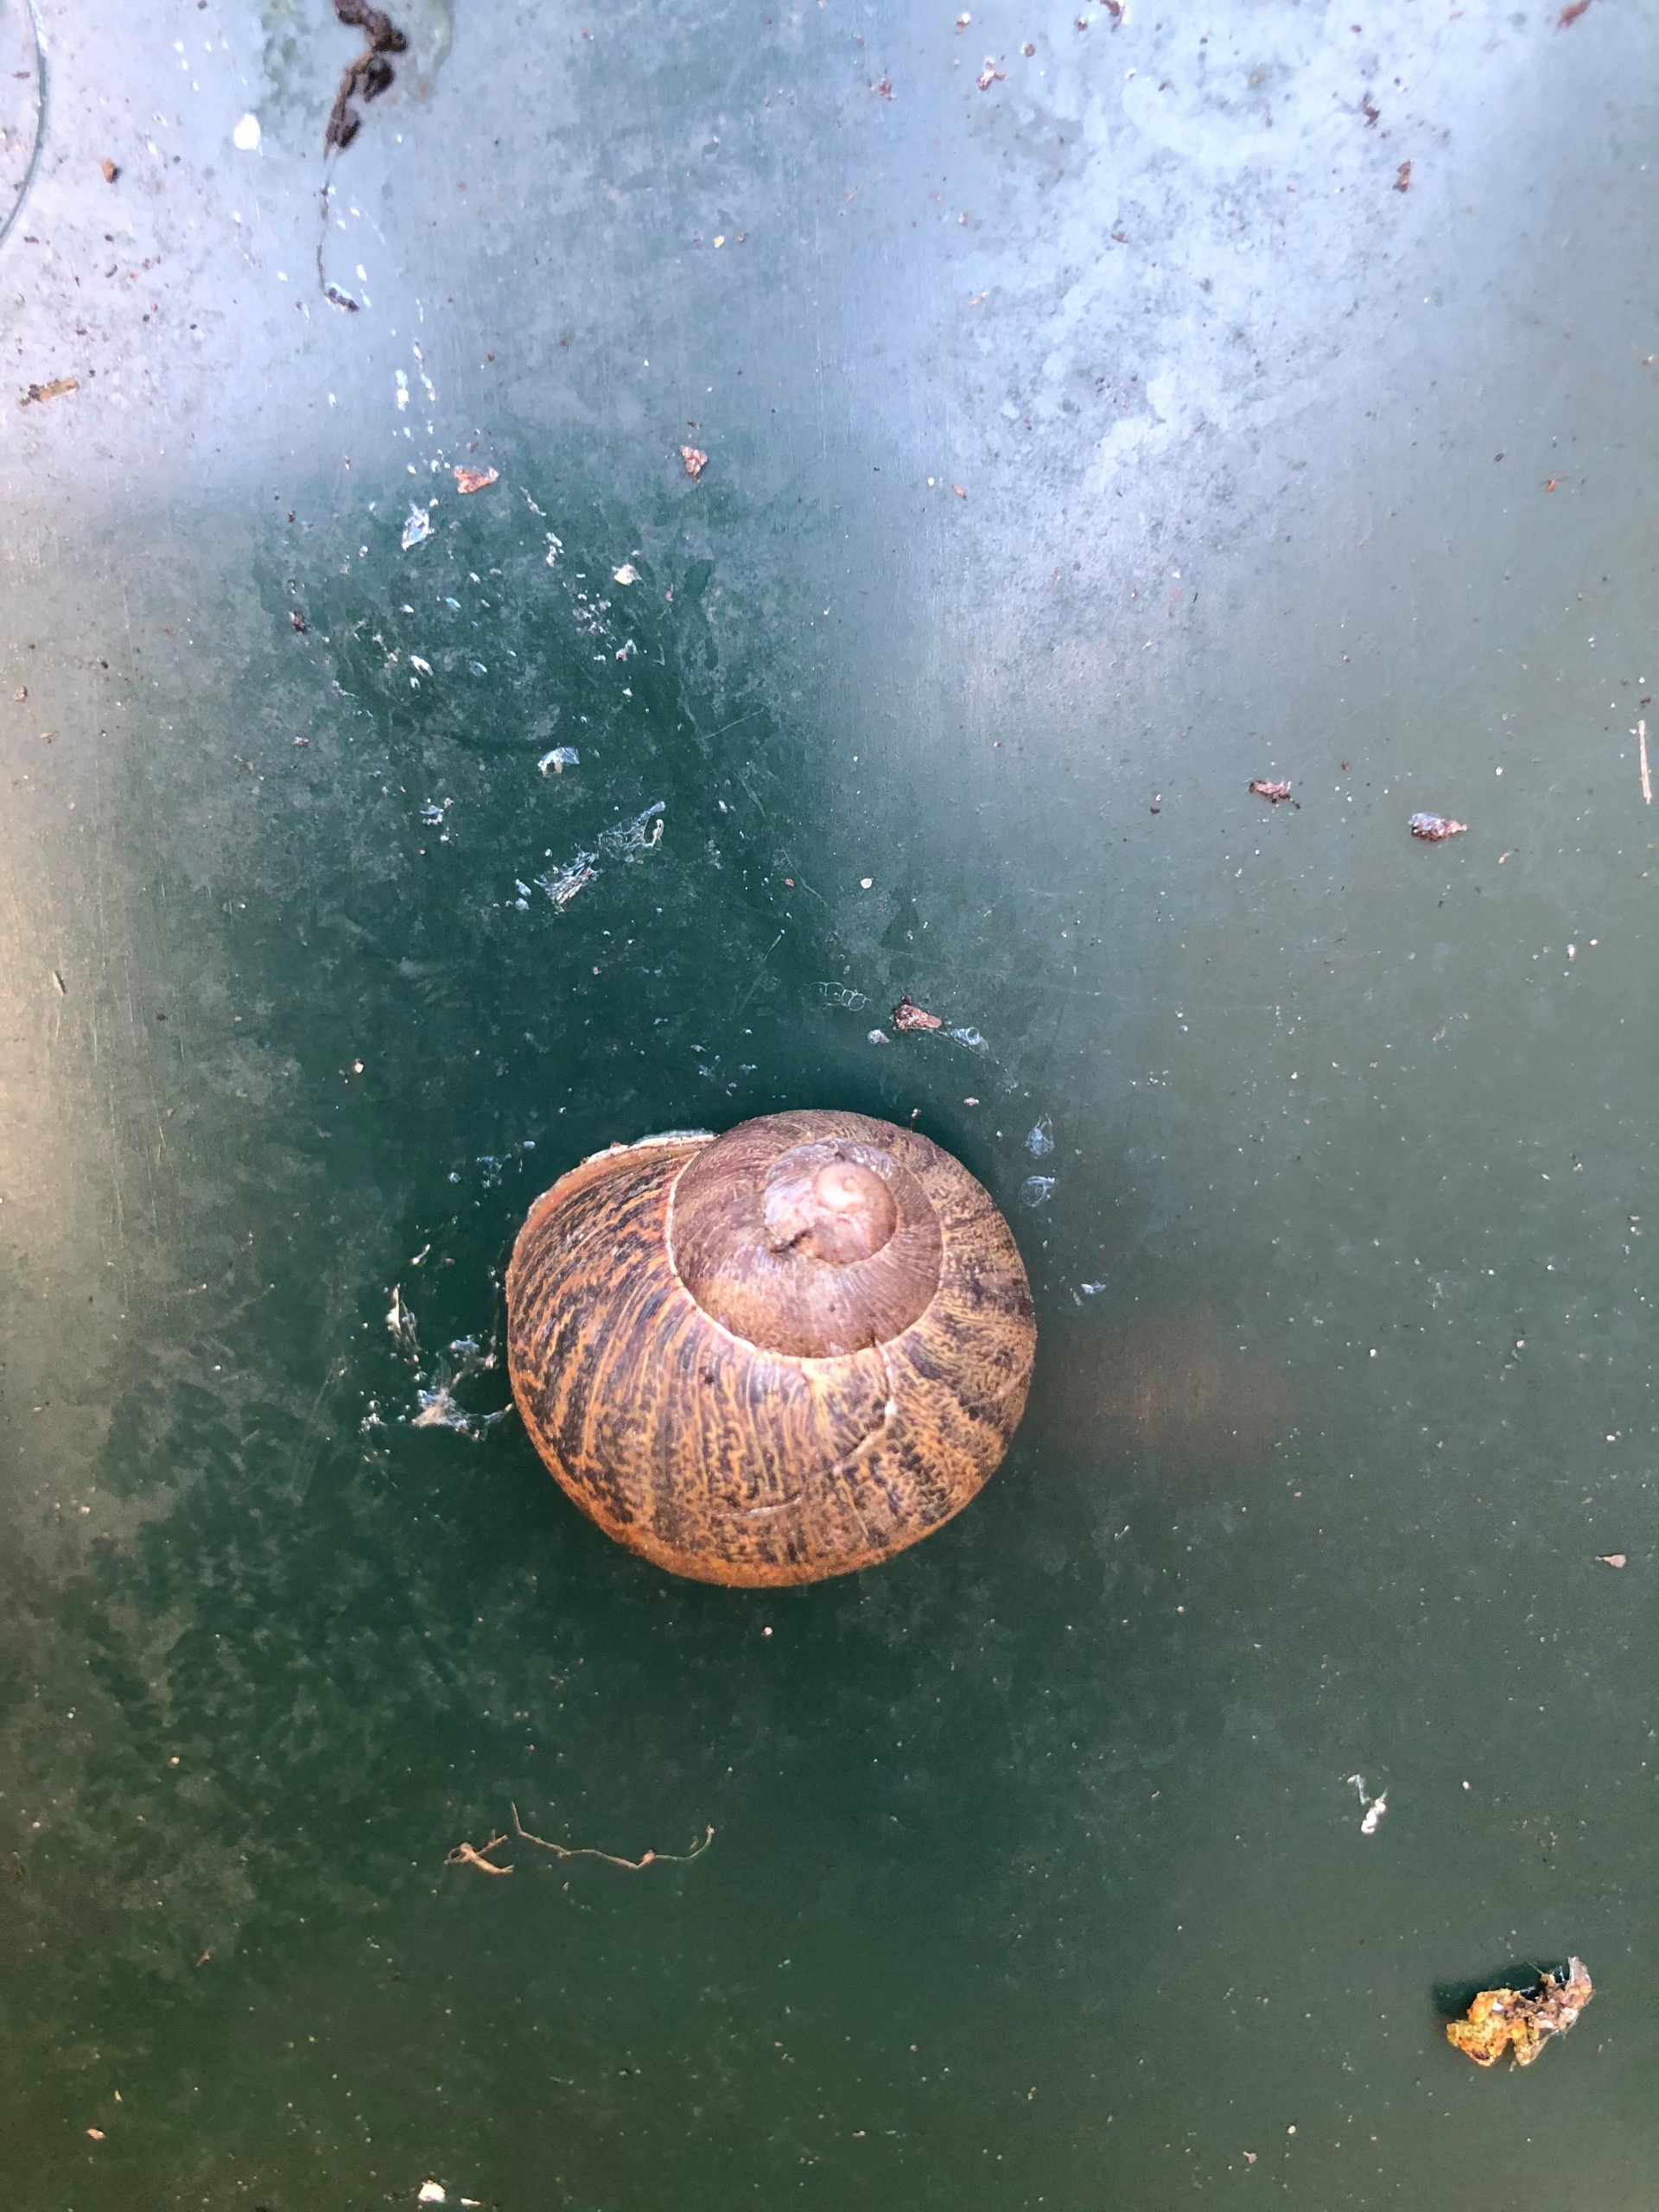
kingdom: Animalia
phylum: Mollusca
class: Gastropoda
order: Stylommatophora
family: Helicidae
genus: Cornu
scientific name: Cornu aspersum
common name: Plettet voldsnegl
